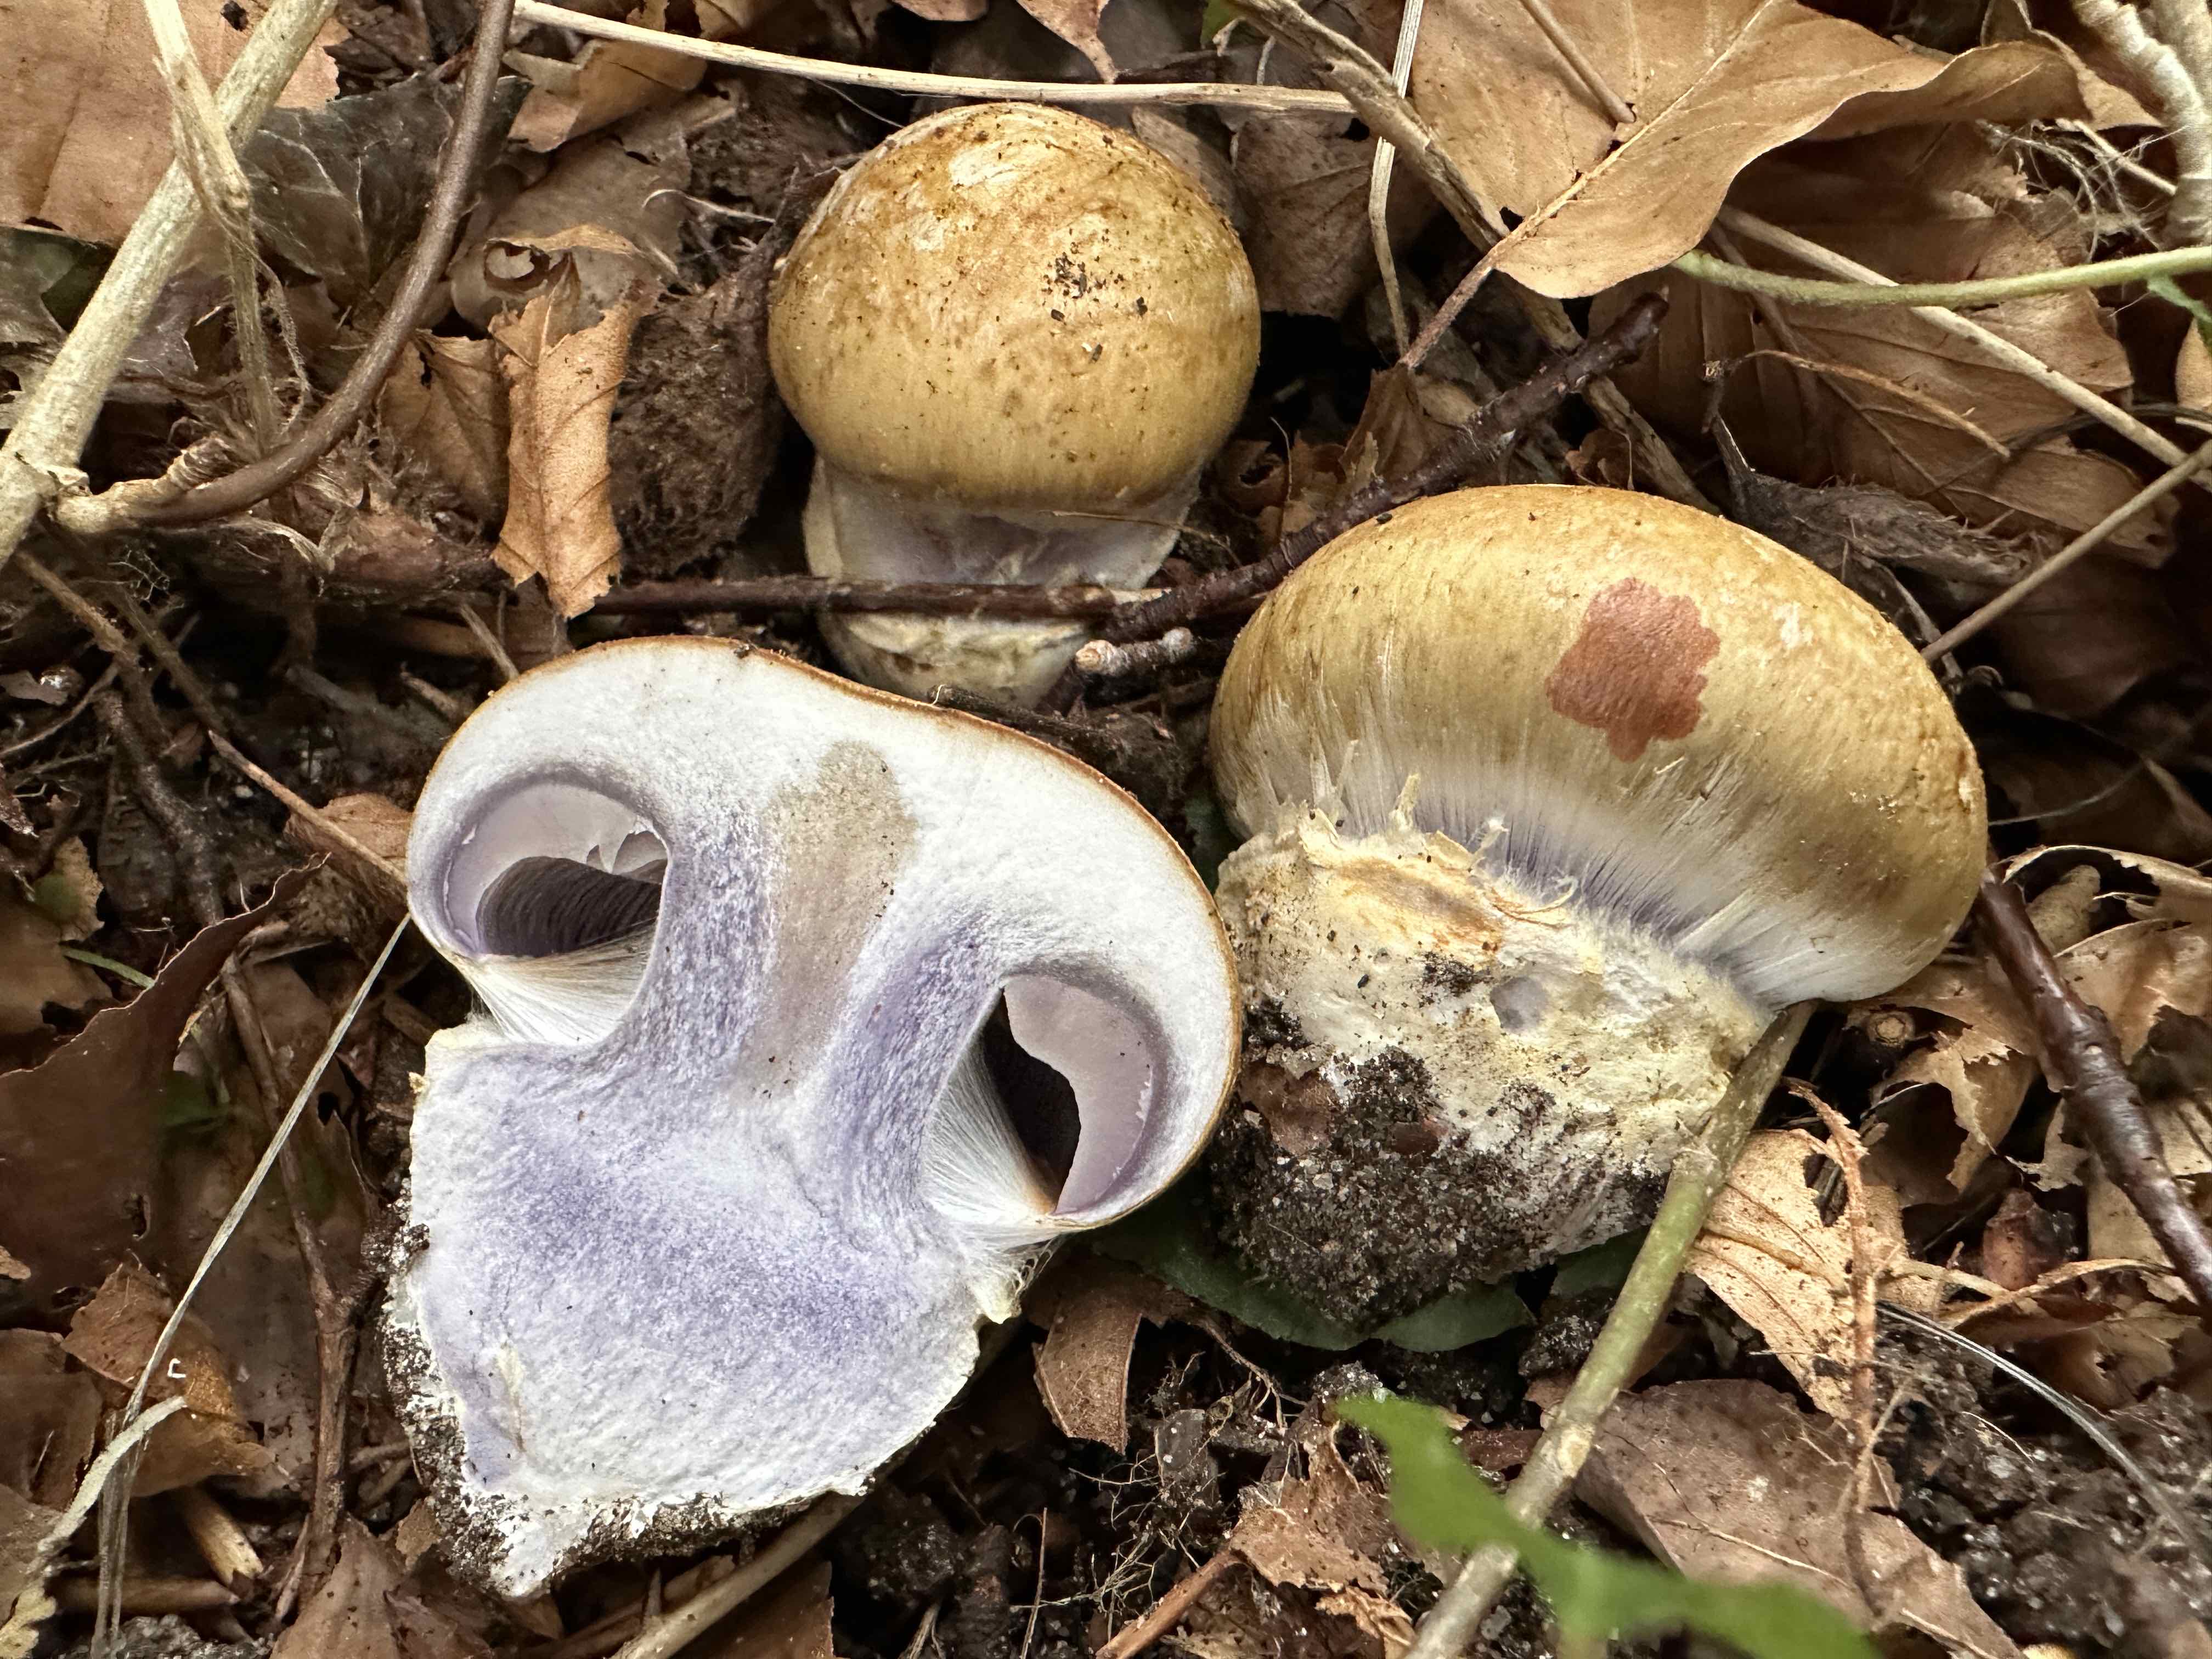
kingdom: Fungi
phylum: Basidiomycota
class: Agaricomycetes
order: Agaricales
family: Cortinariaceae
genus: Cortinarius
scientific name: Cortinarius anserinus
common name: bøge-slørhat
